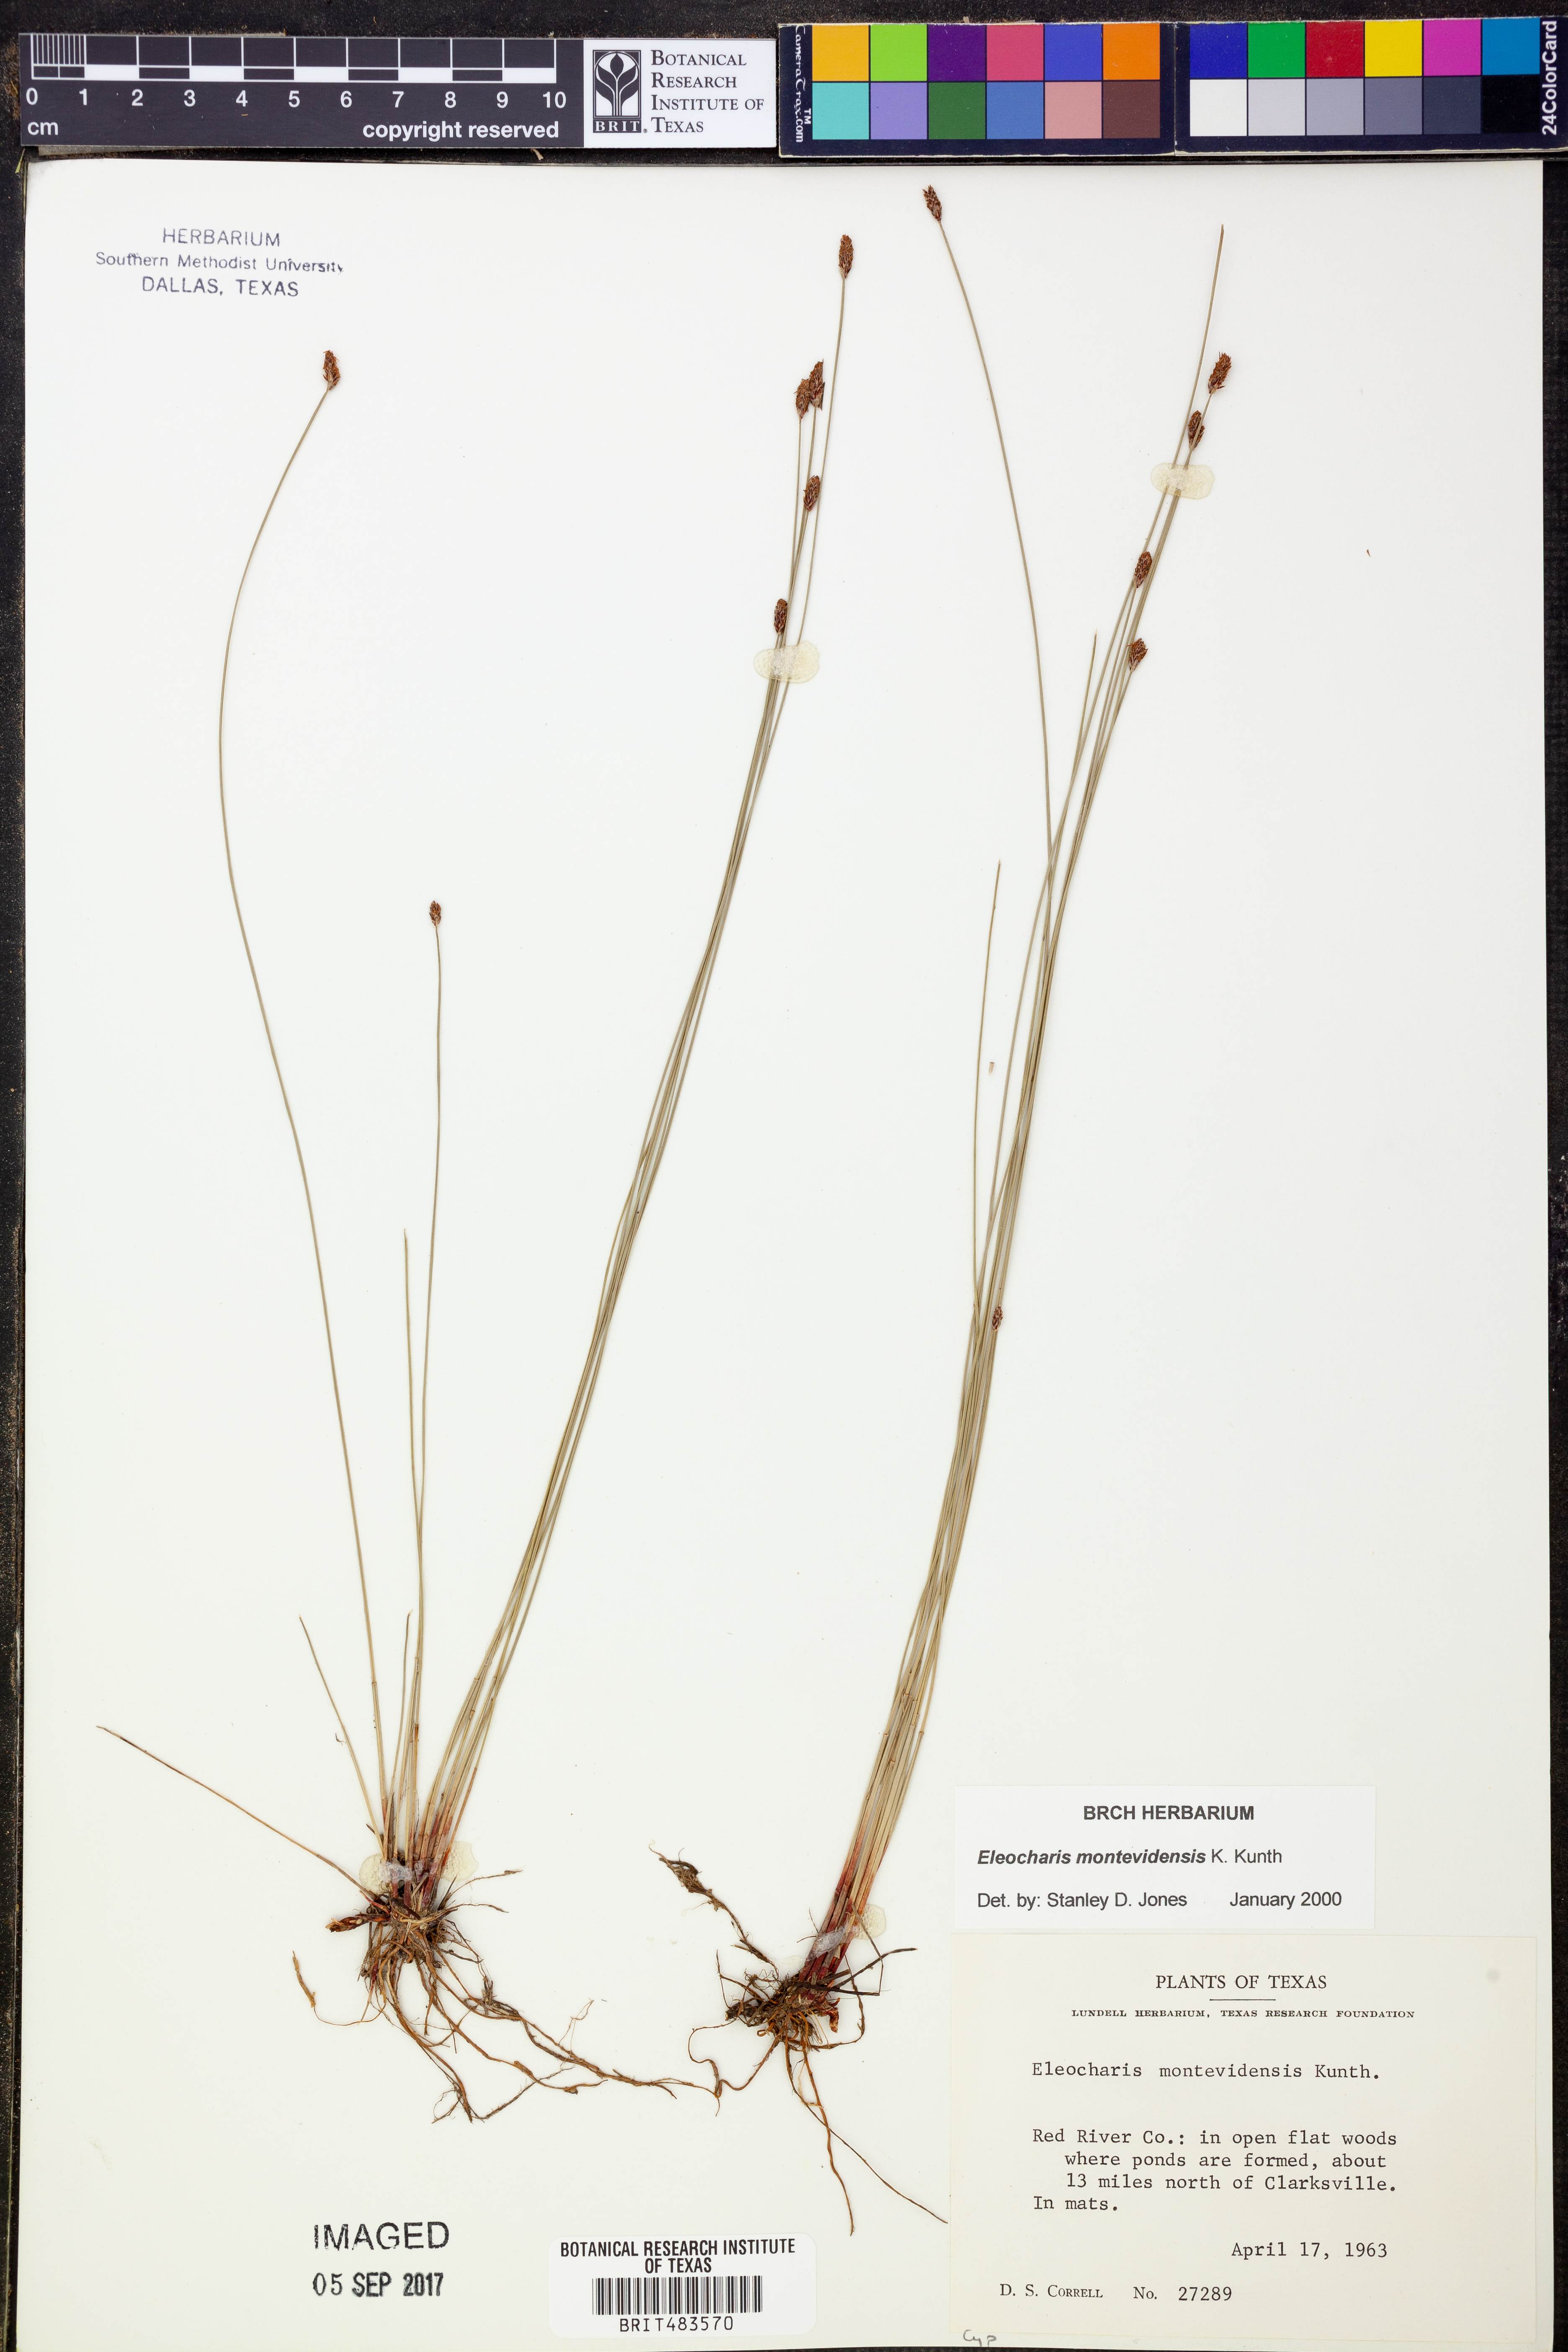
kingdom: Plantae
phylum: Tracheophyta
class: Liliopsida
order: Poales
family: Cyperaceae
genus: Eleocharis
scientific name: Eleocharis montevidensis
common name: Sand spike-rush
